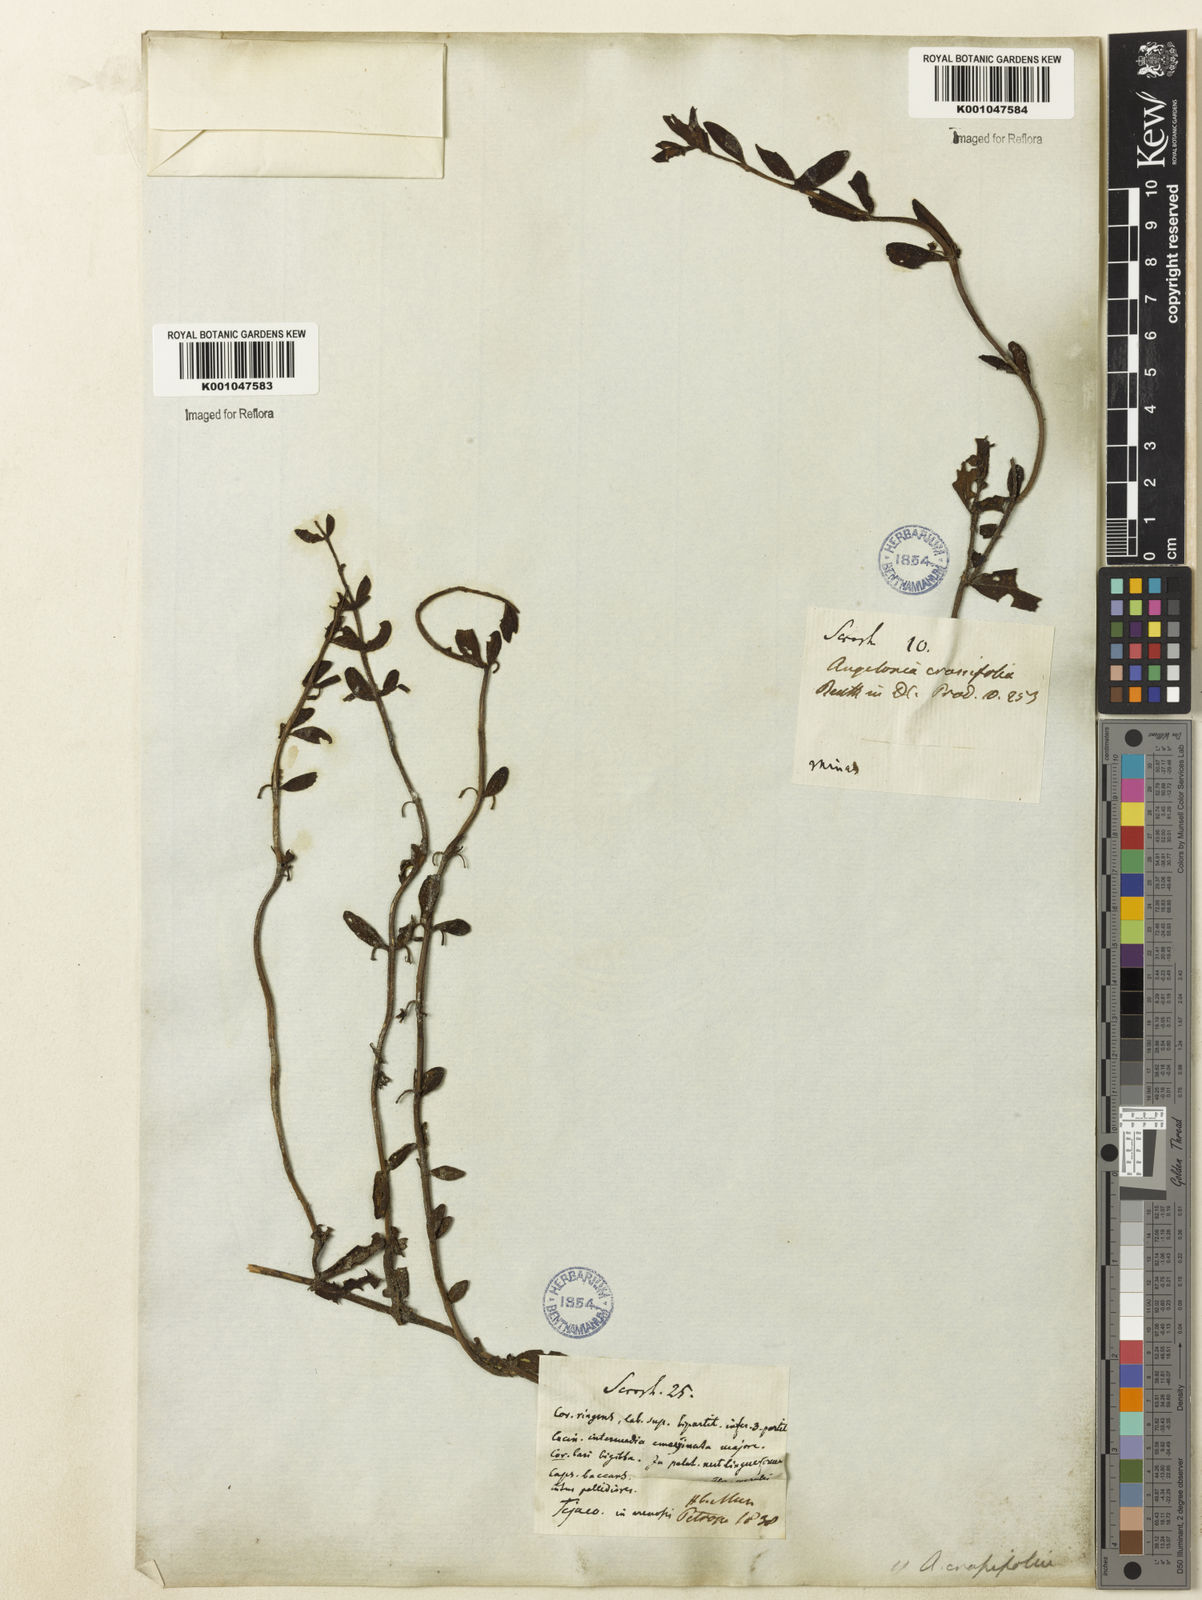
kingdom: Plantae
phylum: Tracheophyta
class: Magnoliopsida
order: Lamiales
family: Plantaginaceae
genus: Angelonia
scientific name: Angelonia crassifolia
